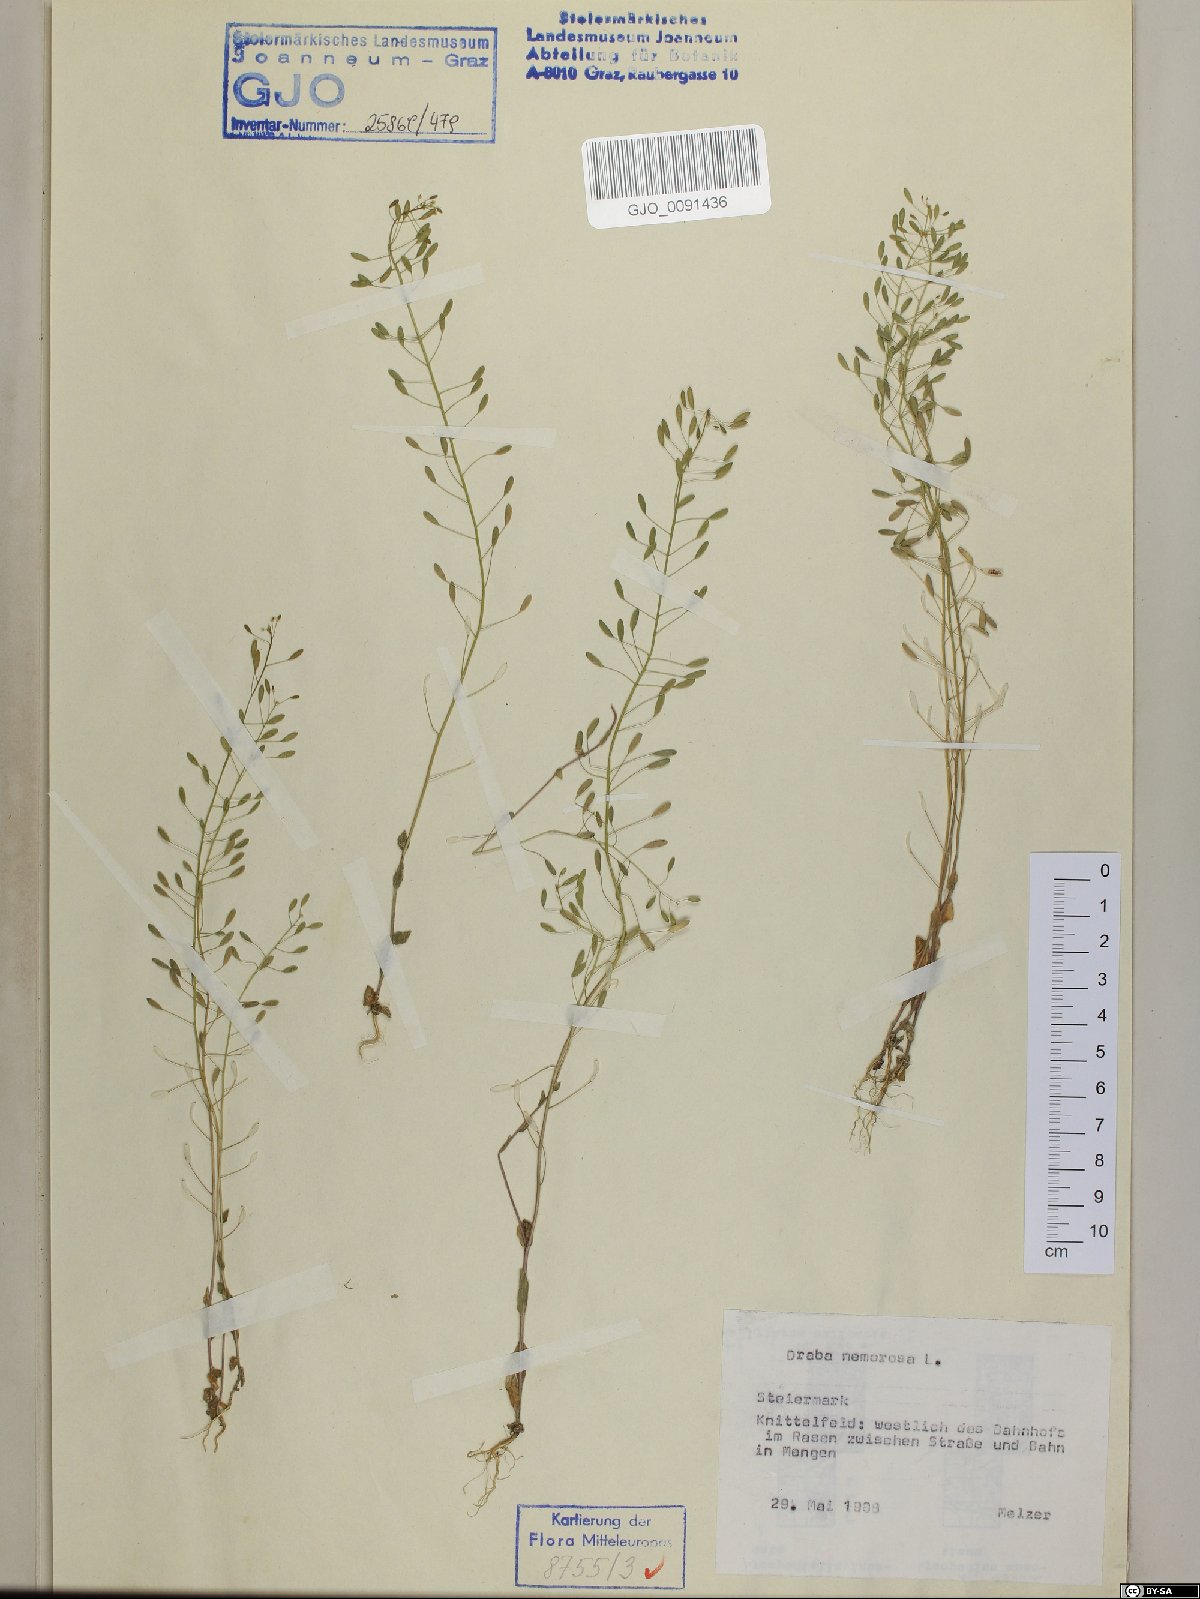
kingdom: Plantae
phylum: Tracheophyta
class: Magnoliopsida
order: Brassicales
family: Brassicaceae
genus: Draba
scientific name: Draba nemorosa
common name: Wood whitlow-grass
